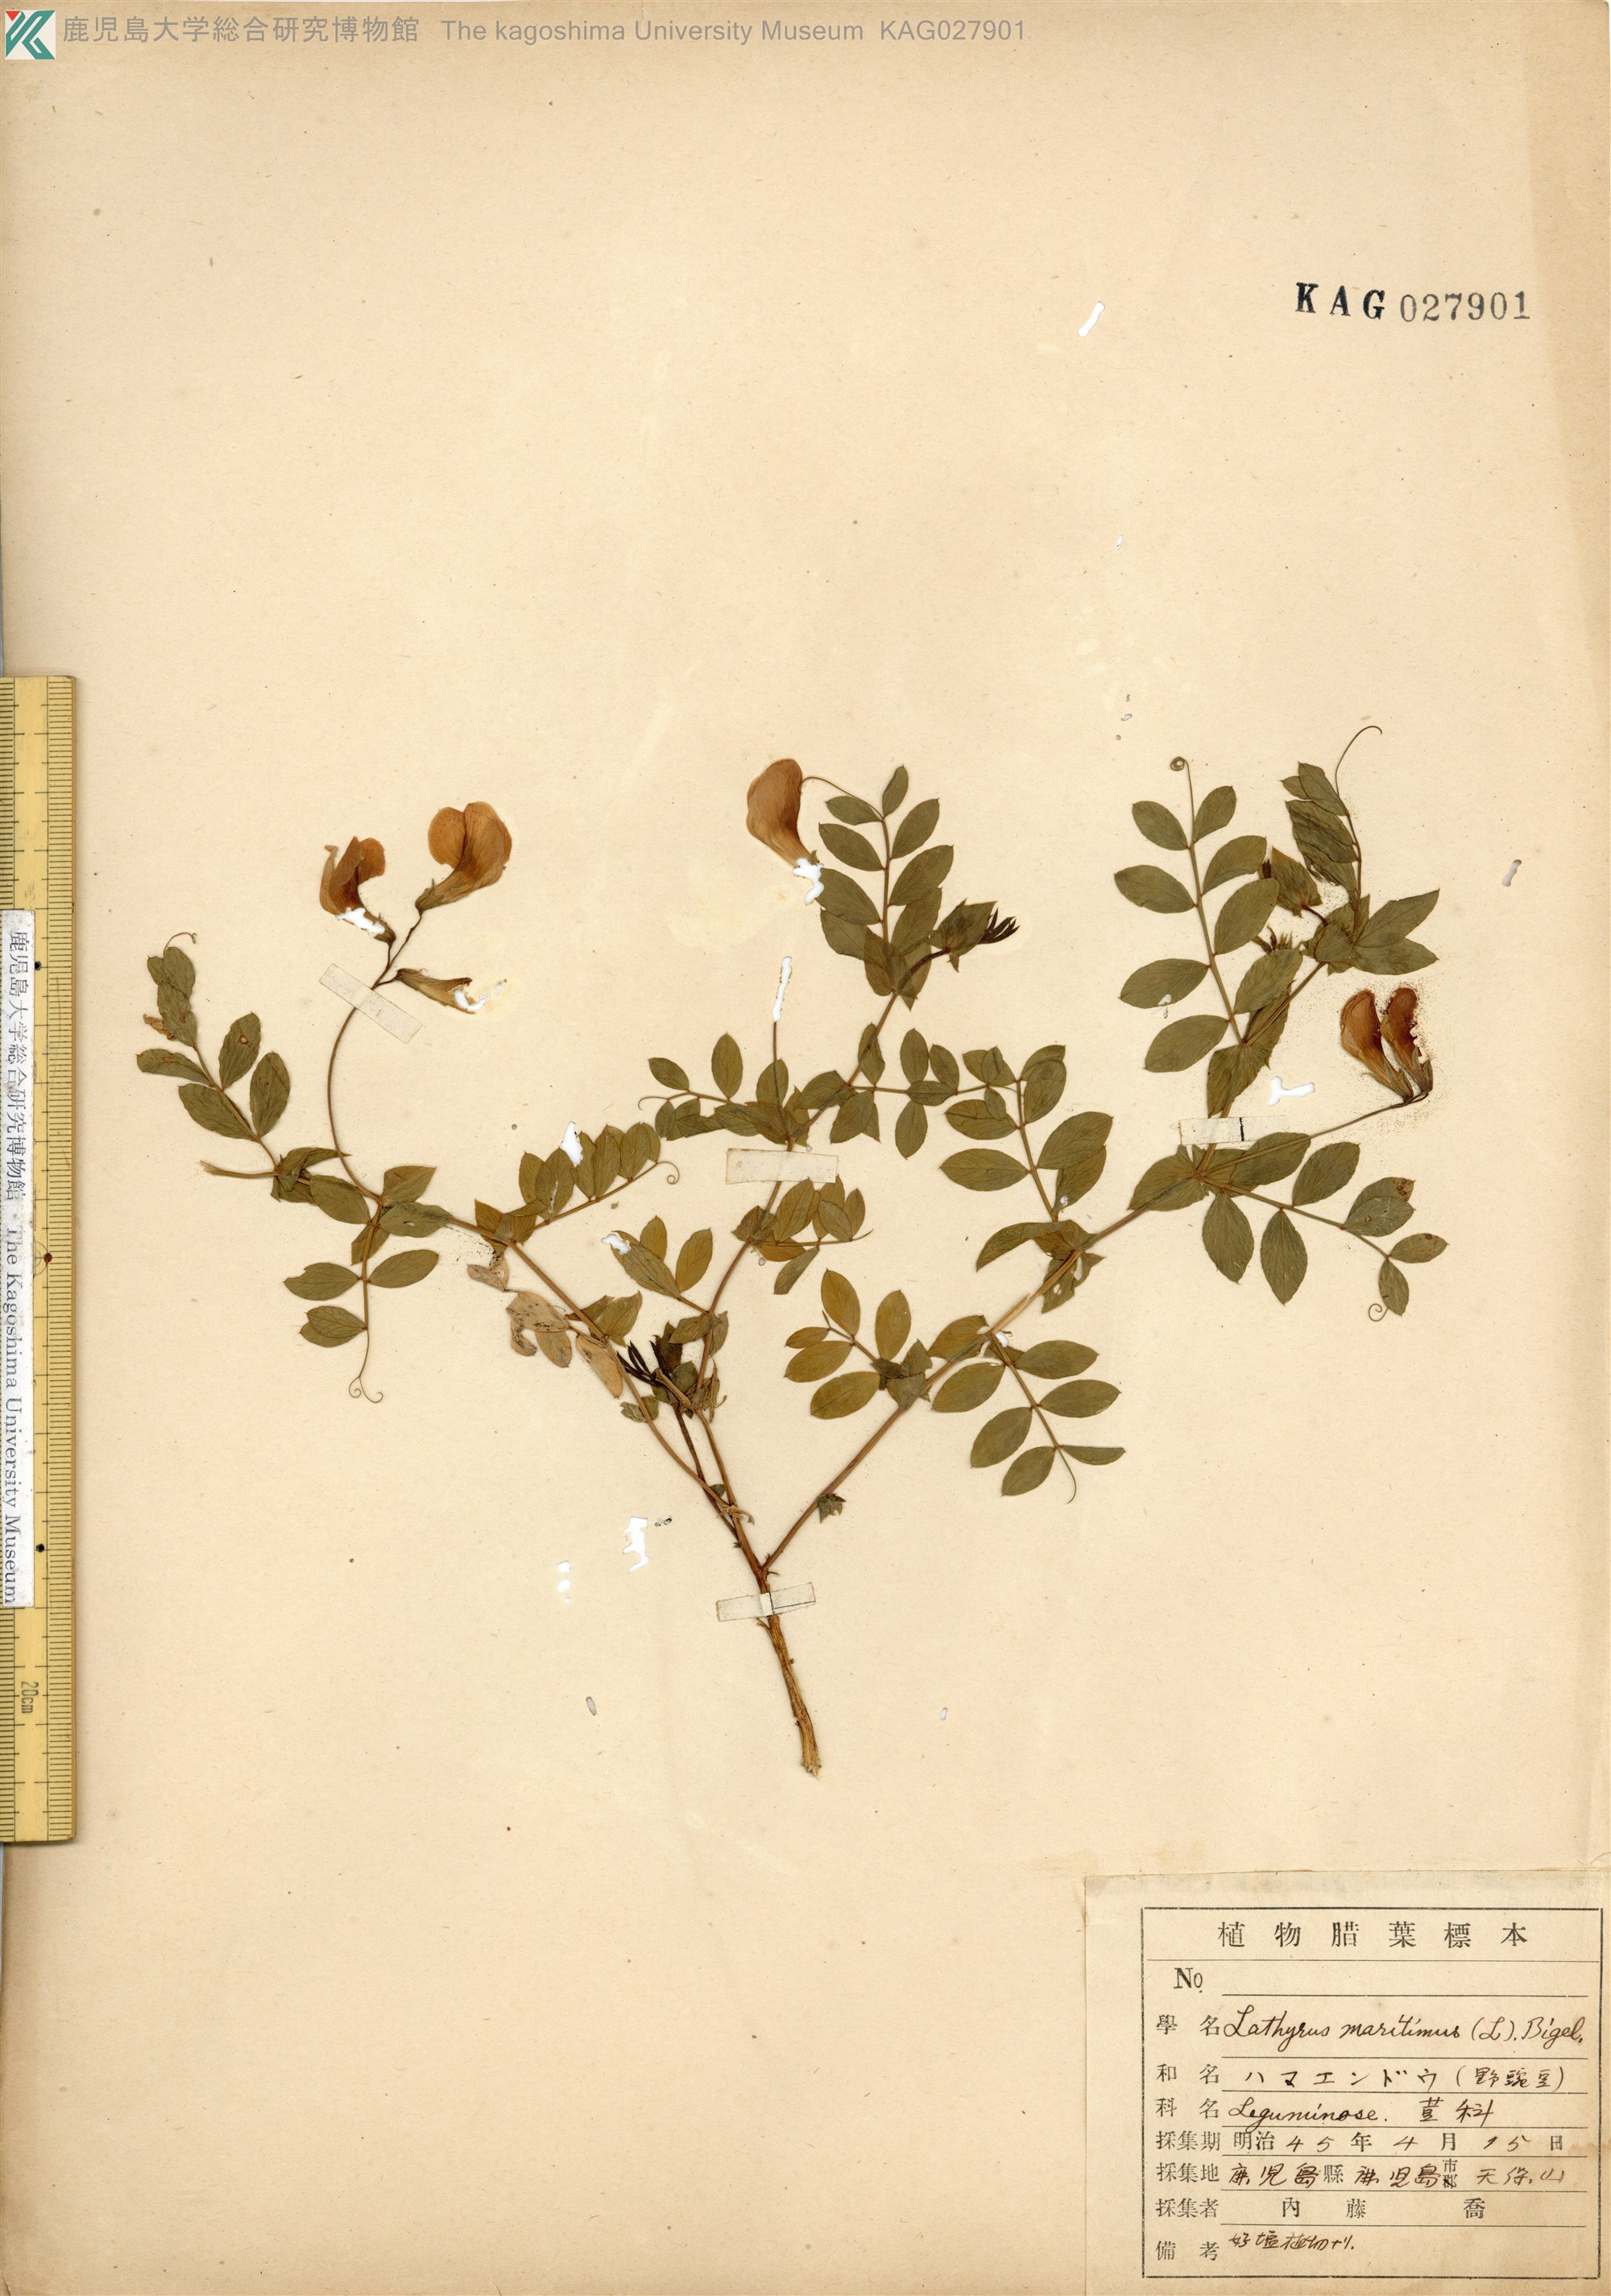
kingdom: Plantae
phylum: Tracheophyta
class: Magnoliopsida
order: Fabales
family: Fabaceae
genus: Lathyrus
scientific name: Lathyrus japonicus
